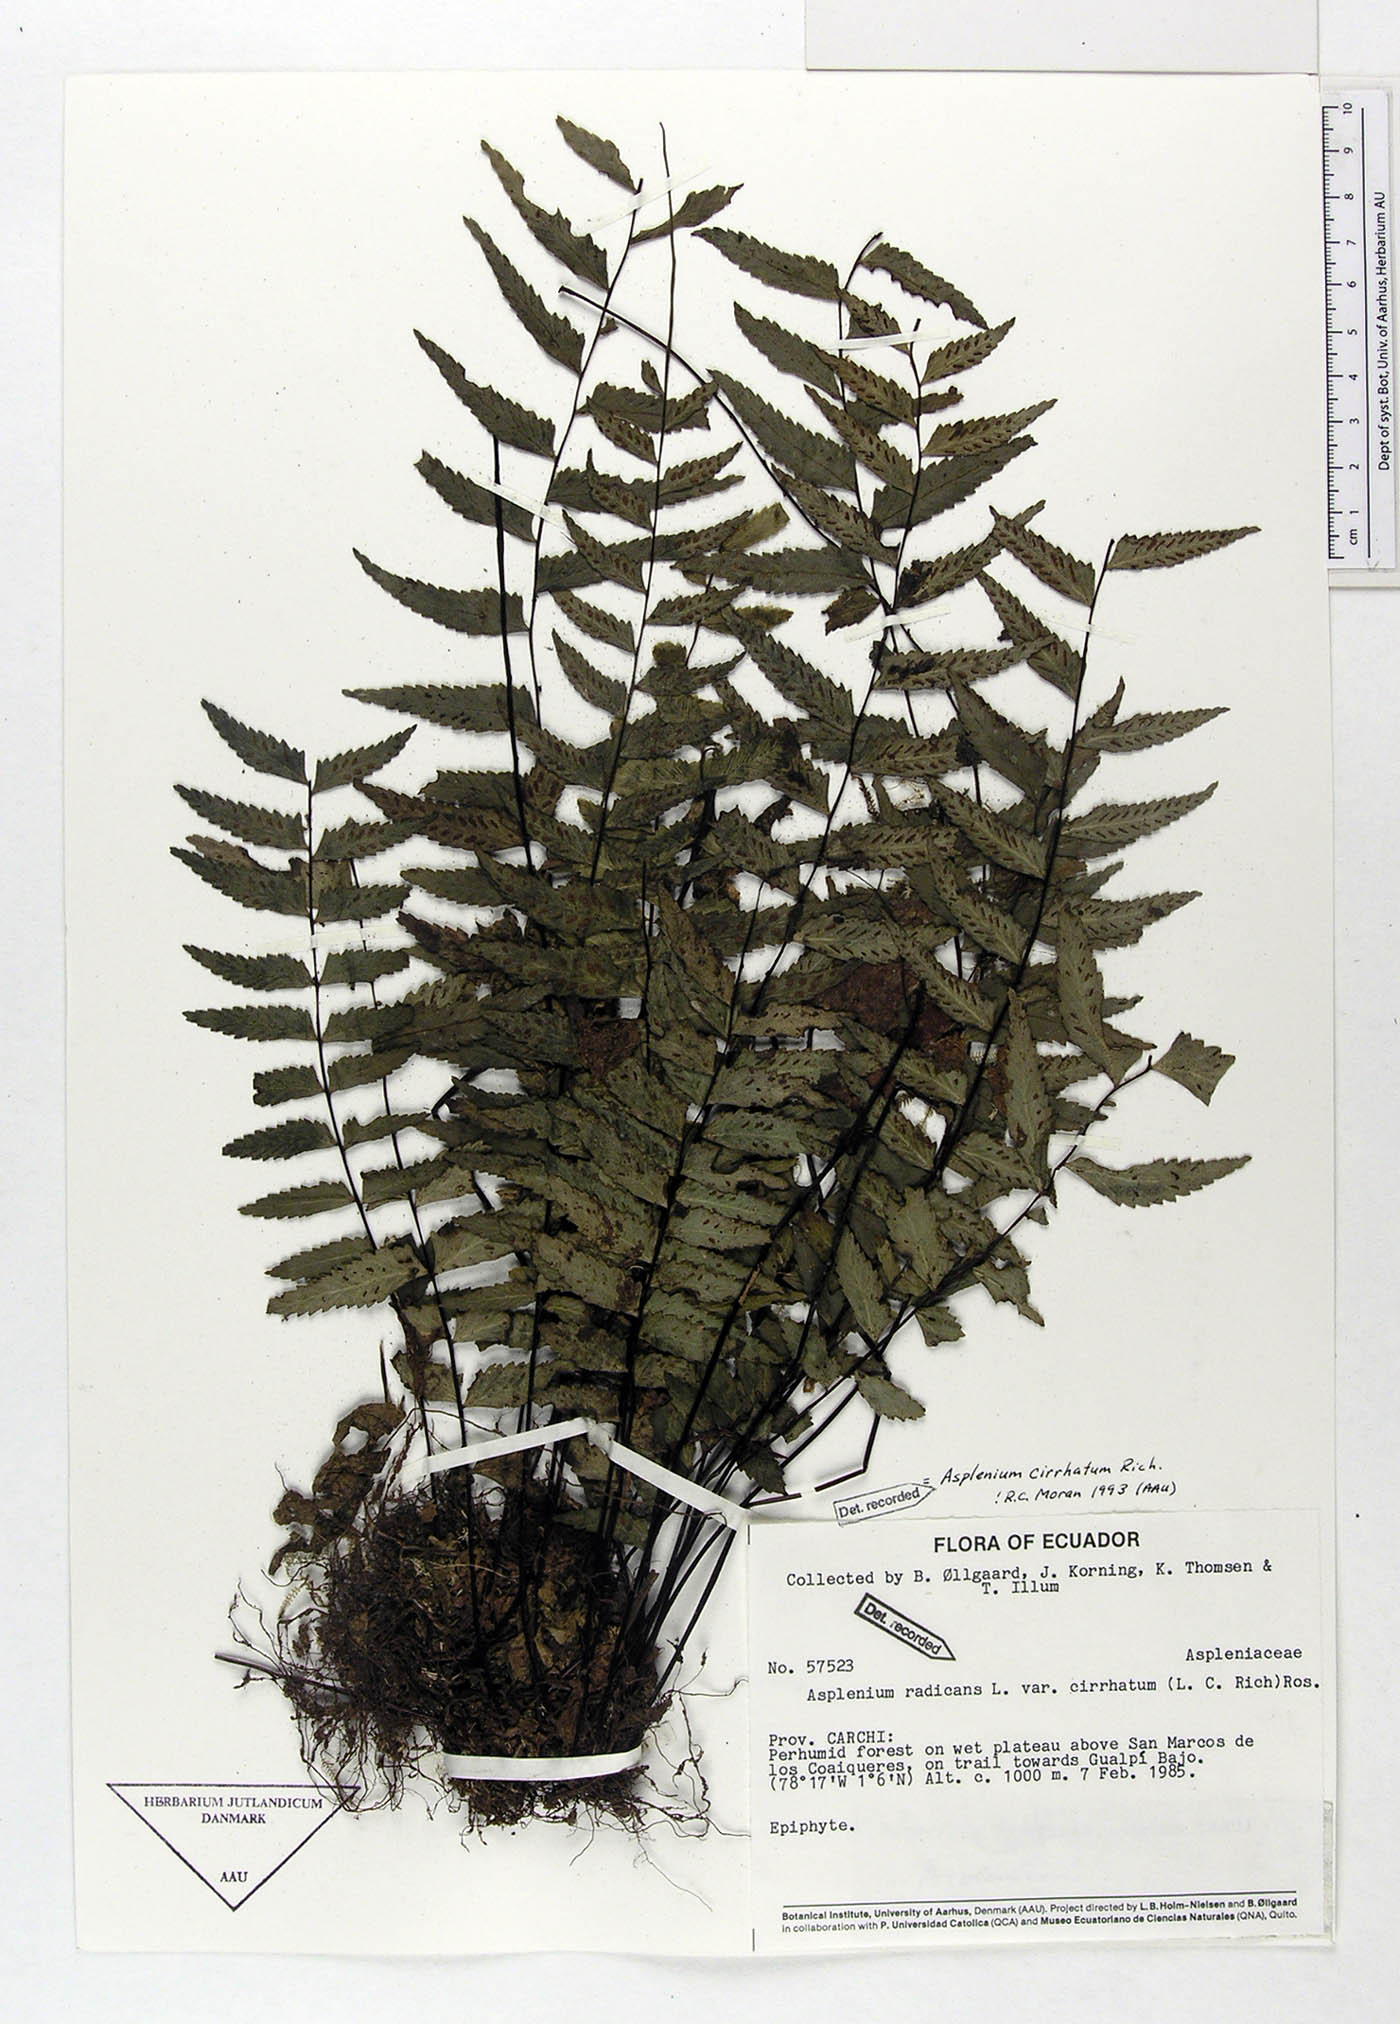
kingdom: Plantae
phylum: Tracheophyta
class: Polypodiopsida
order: Polypodiales
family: Aspleniaceae
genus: Asplenium
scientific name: Asplenium cirrhatum
